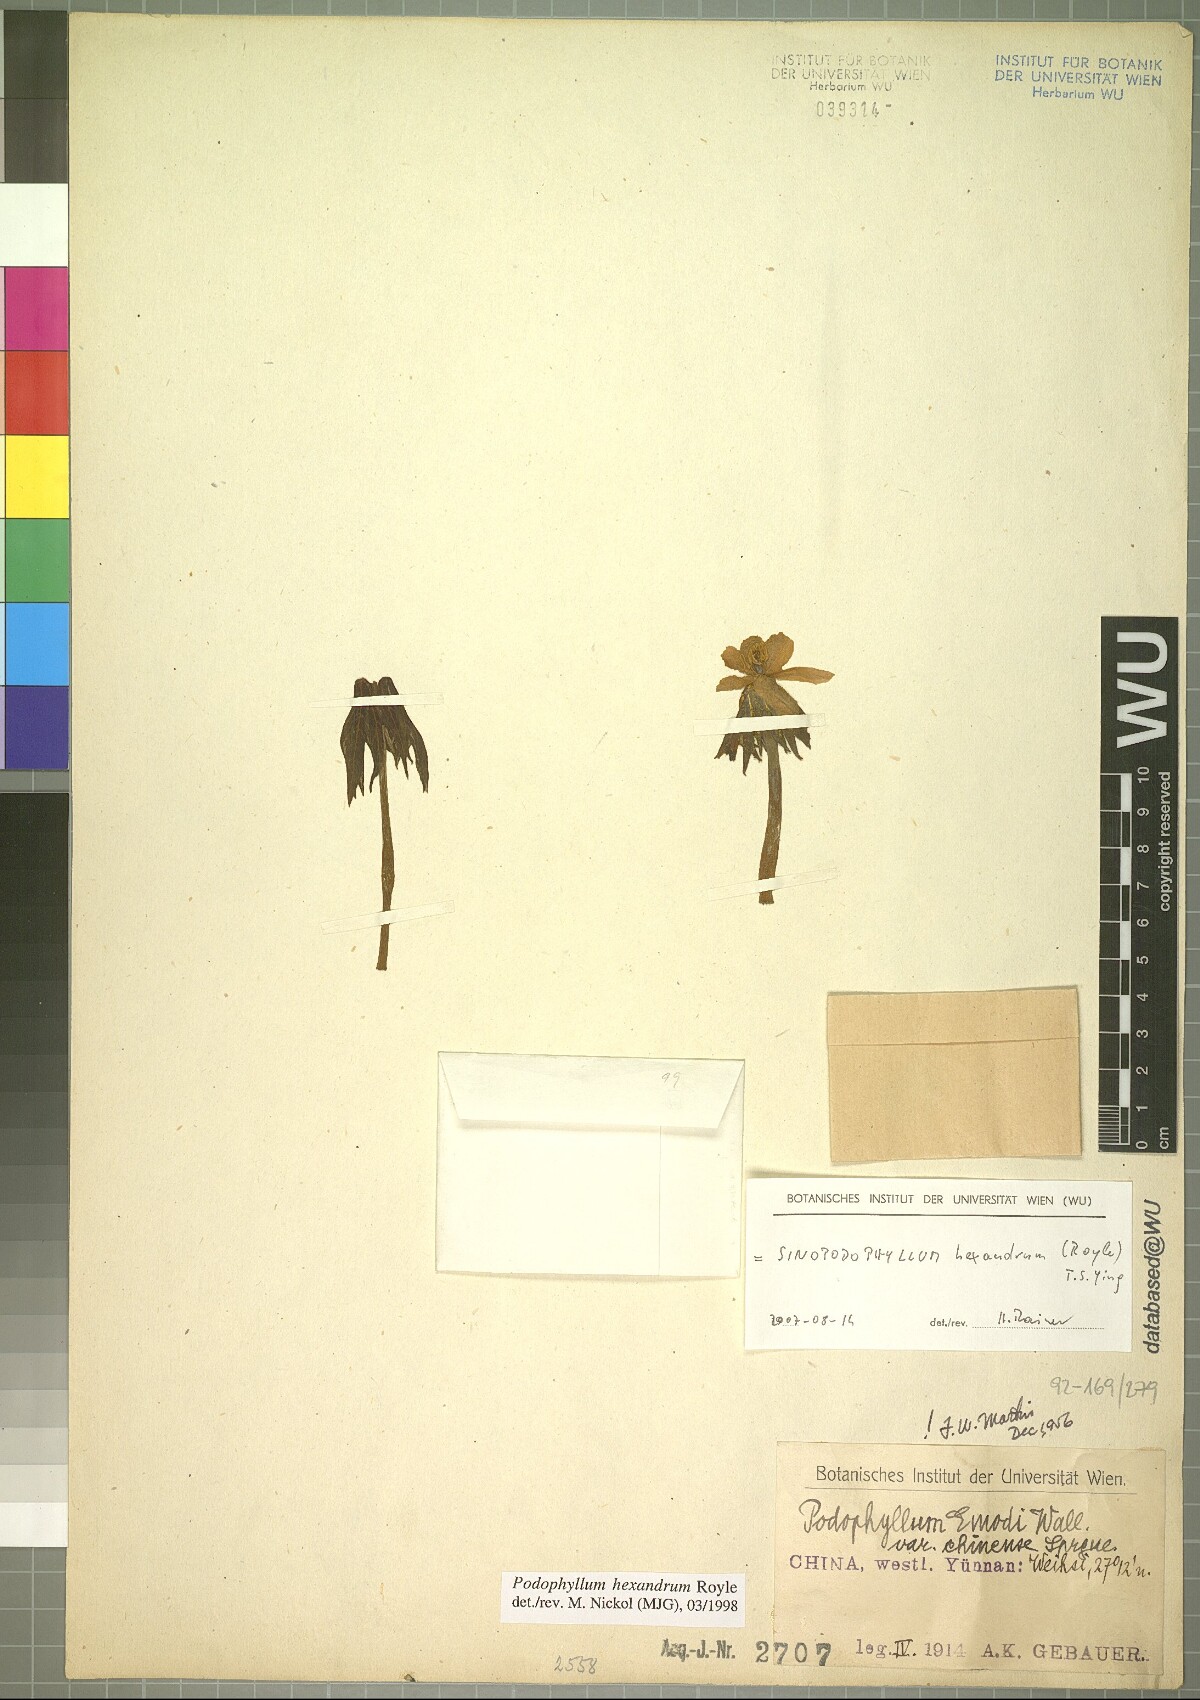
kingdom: Plantae
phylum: Tracheophyta
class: Magnoliopsida
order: Ranunculales
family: Berberidaceae
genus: Sinopodophyllum
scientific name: Sinopodophyllum hexandrum
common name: Himalayan may-apple
